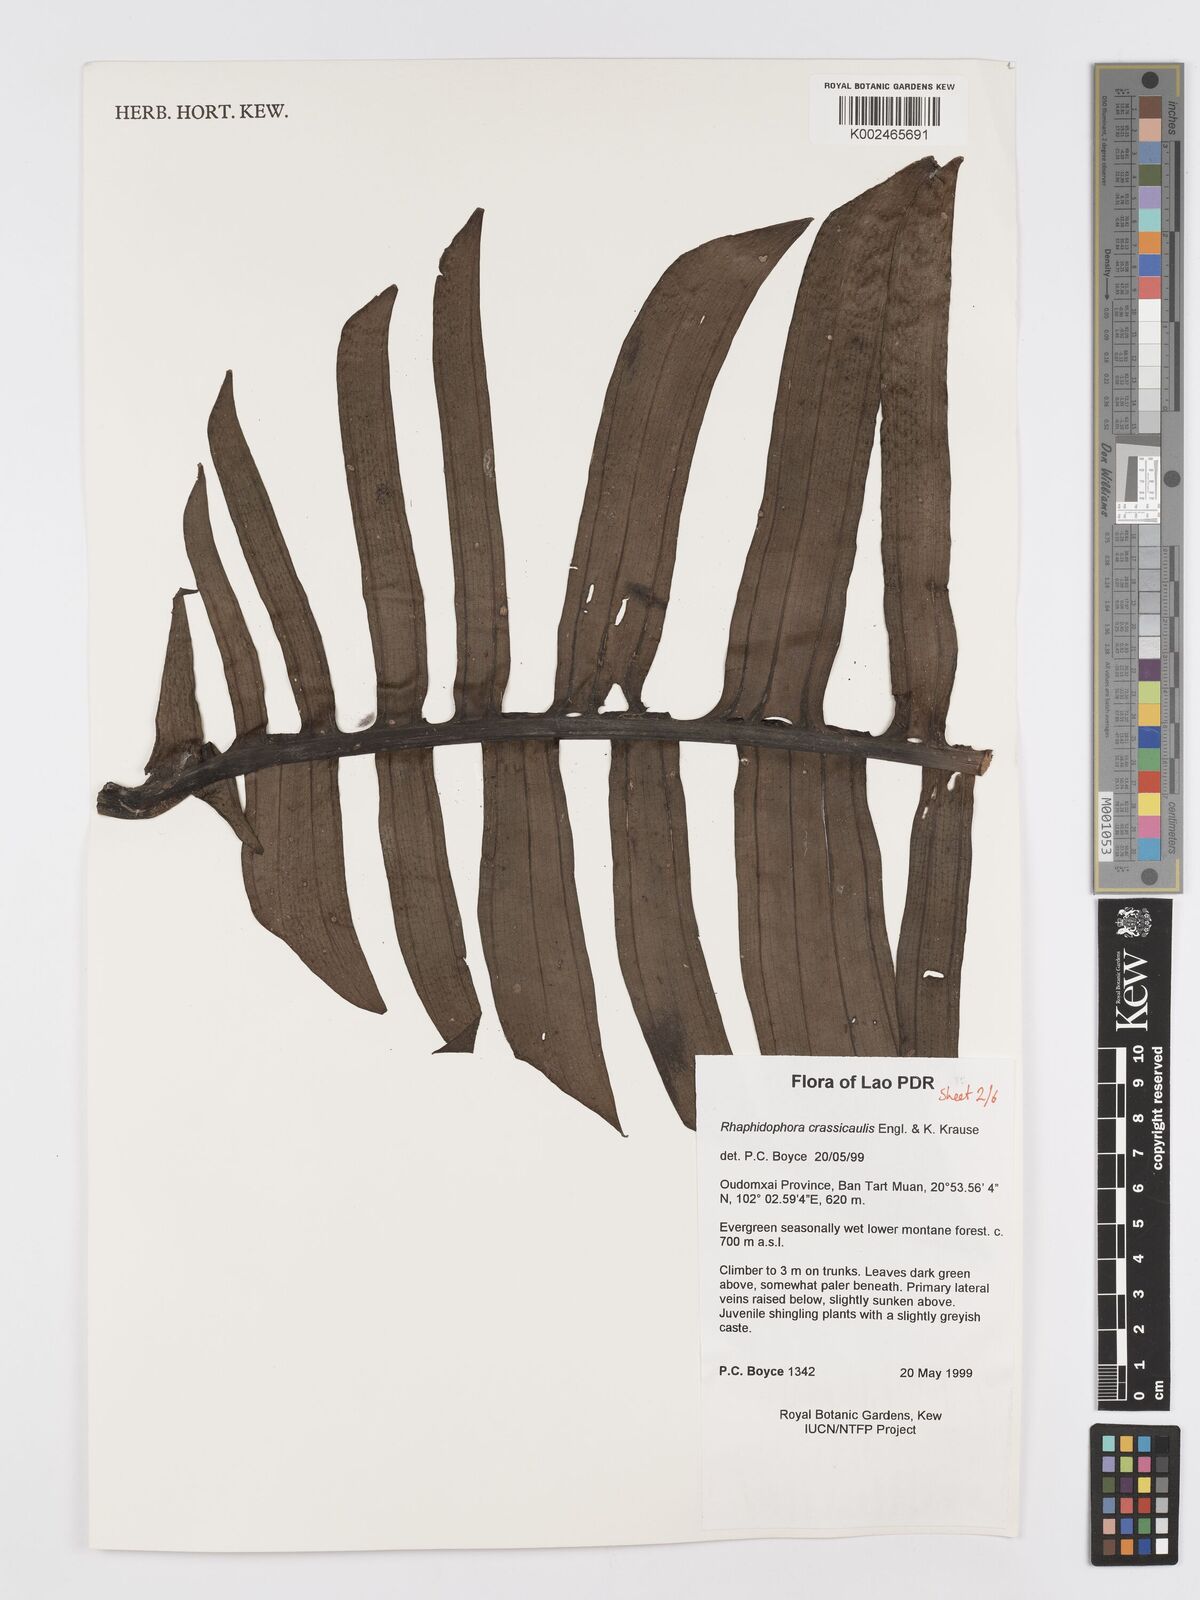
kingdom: Plantae
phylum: Tracheophyta
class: Liliopsida
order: Alismatales
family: Araceae
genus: Rhaphidophora
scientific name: Rhaphidophora crassicaulis
